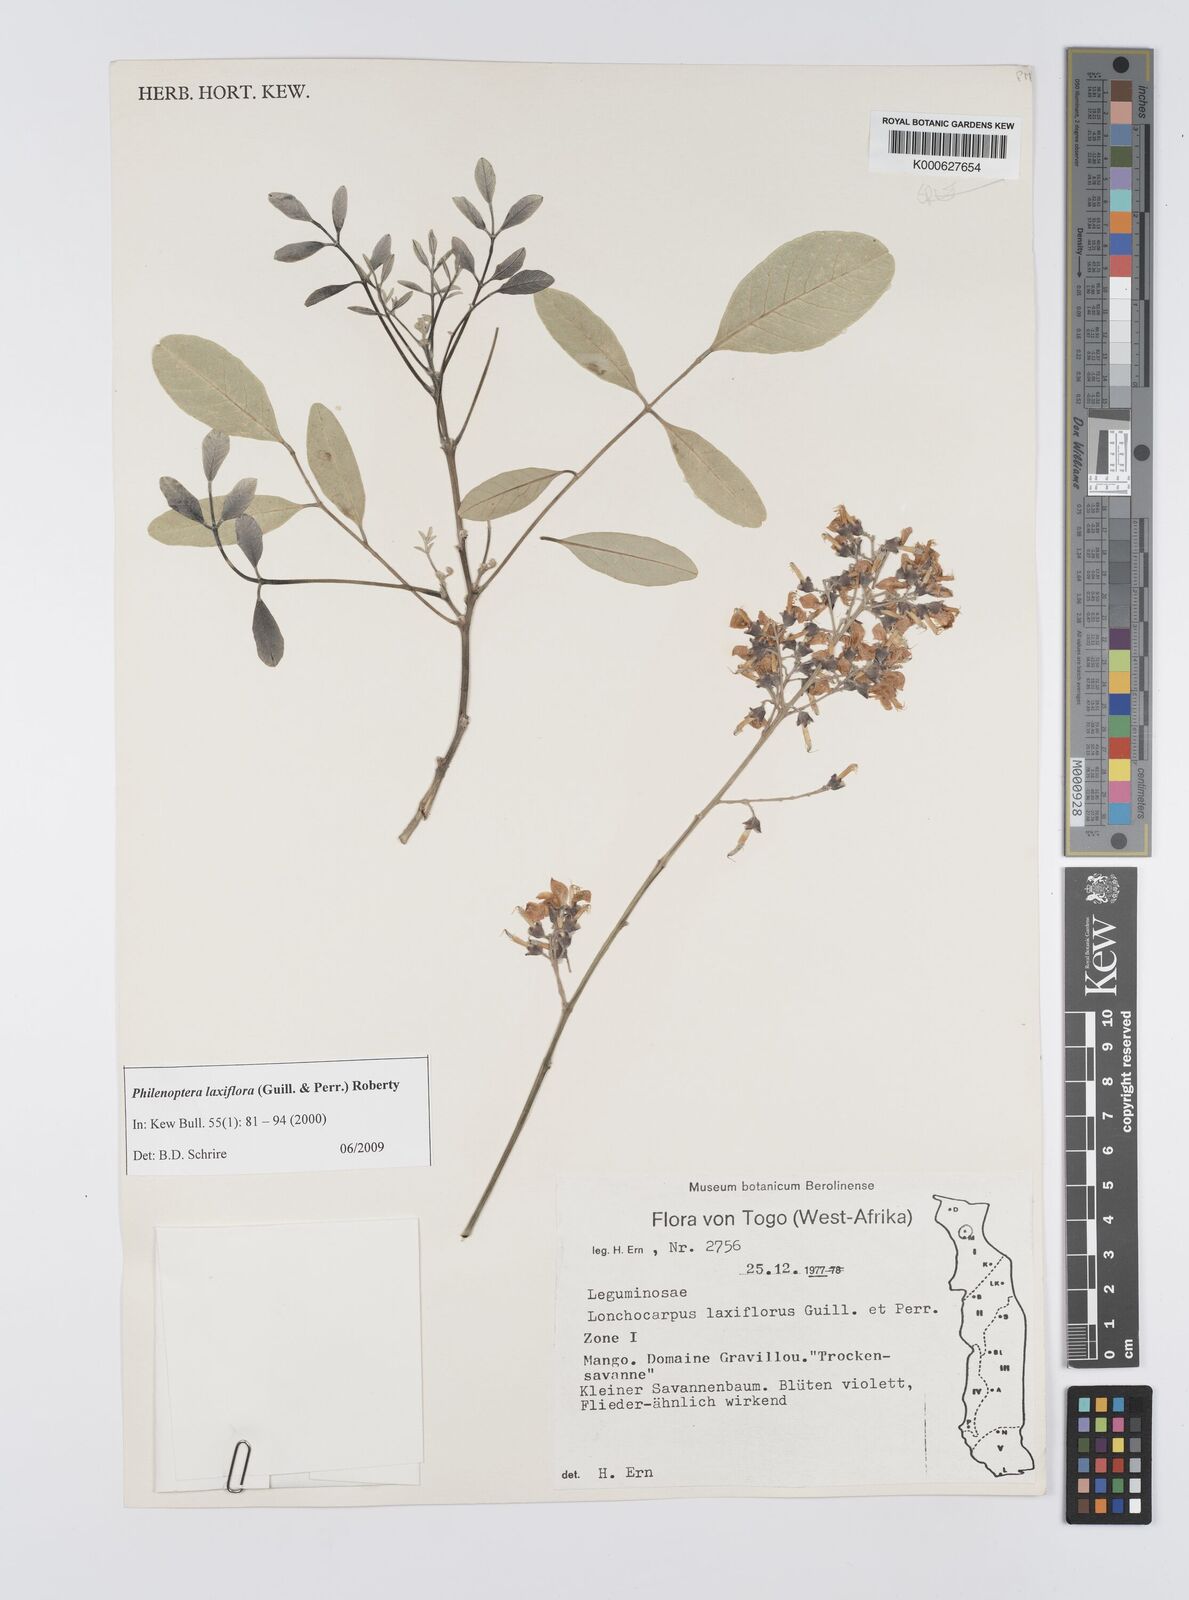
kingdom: Plantae
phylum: Tracheophyta
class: Magnoliopsida
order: Fabales
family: Fabaceae
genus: Philenoptera
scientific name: Philenoptera laxiflora
